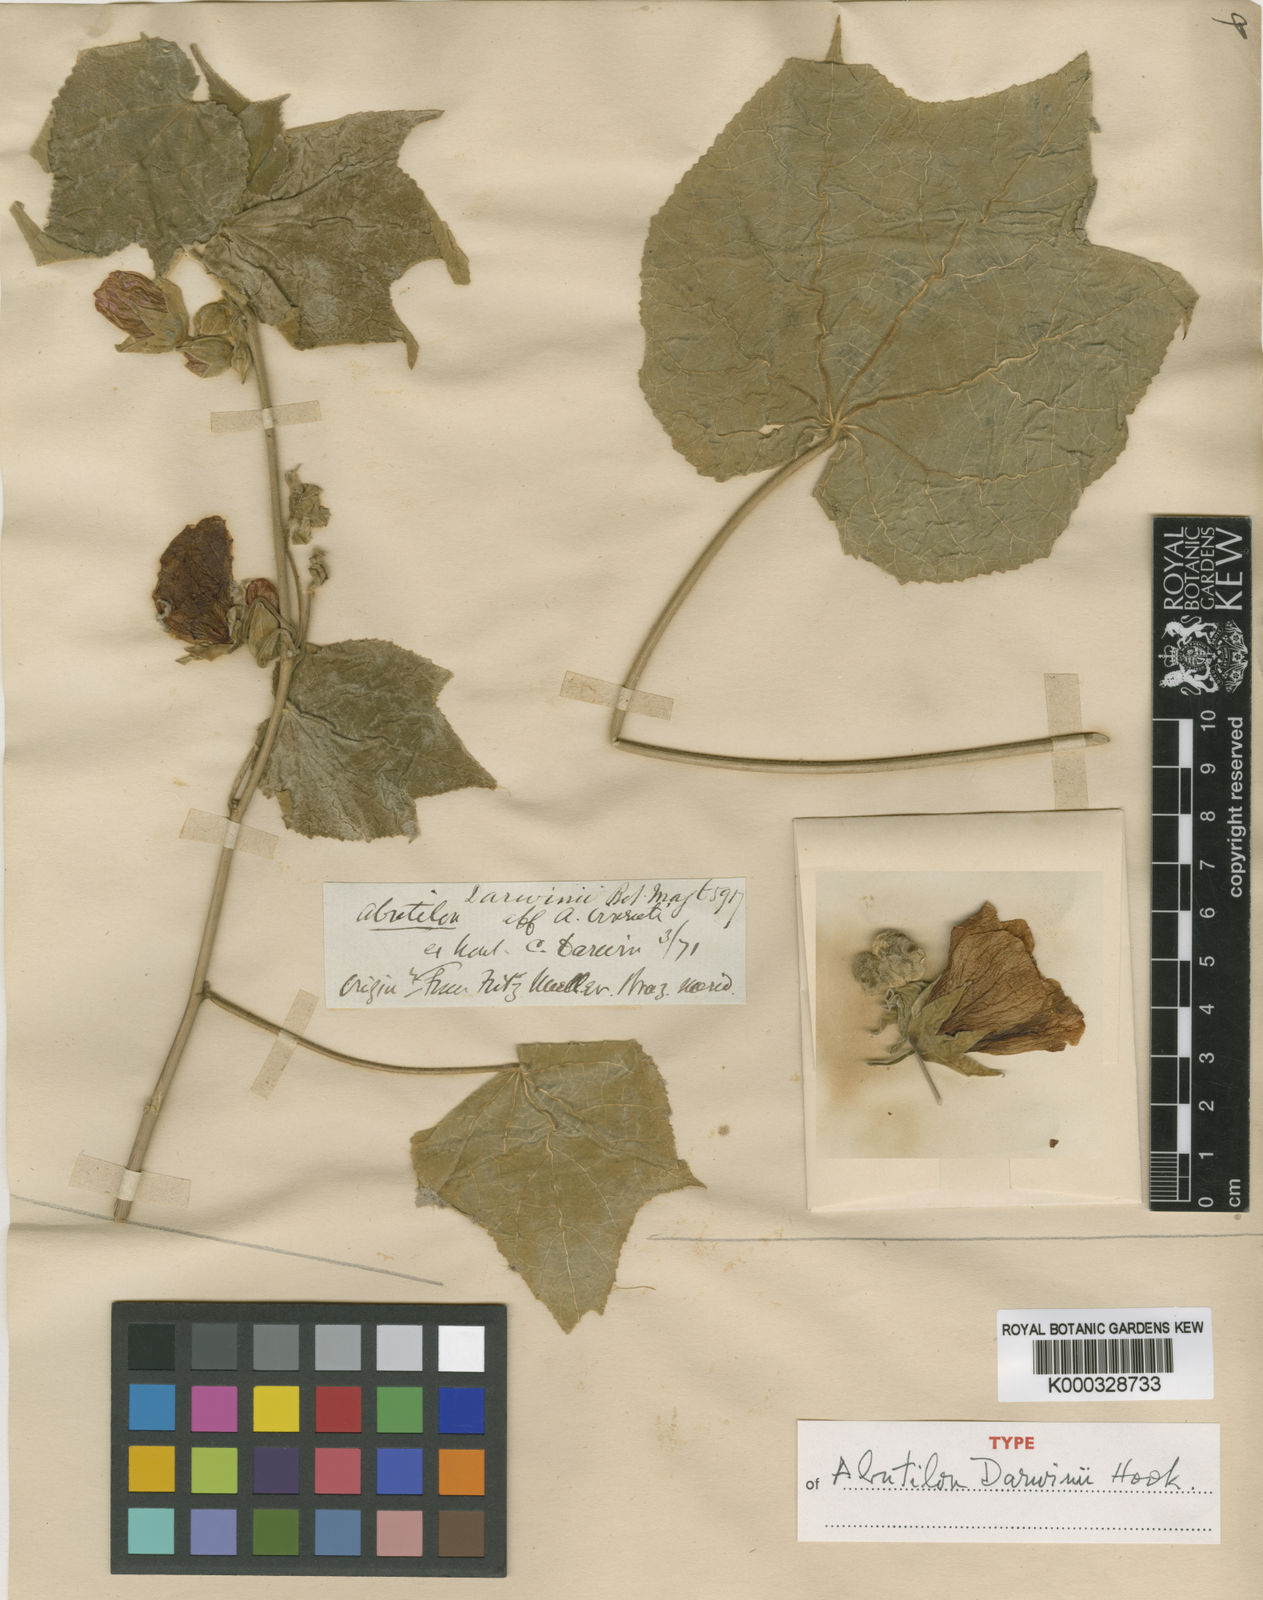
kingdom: Plantae
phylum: Tracheophyta
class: Magnoliopsida
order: Malvales
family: Malvaceae
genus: Callianthe
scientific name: Callianthe darwinii
